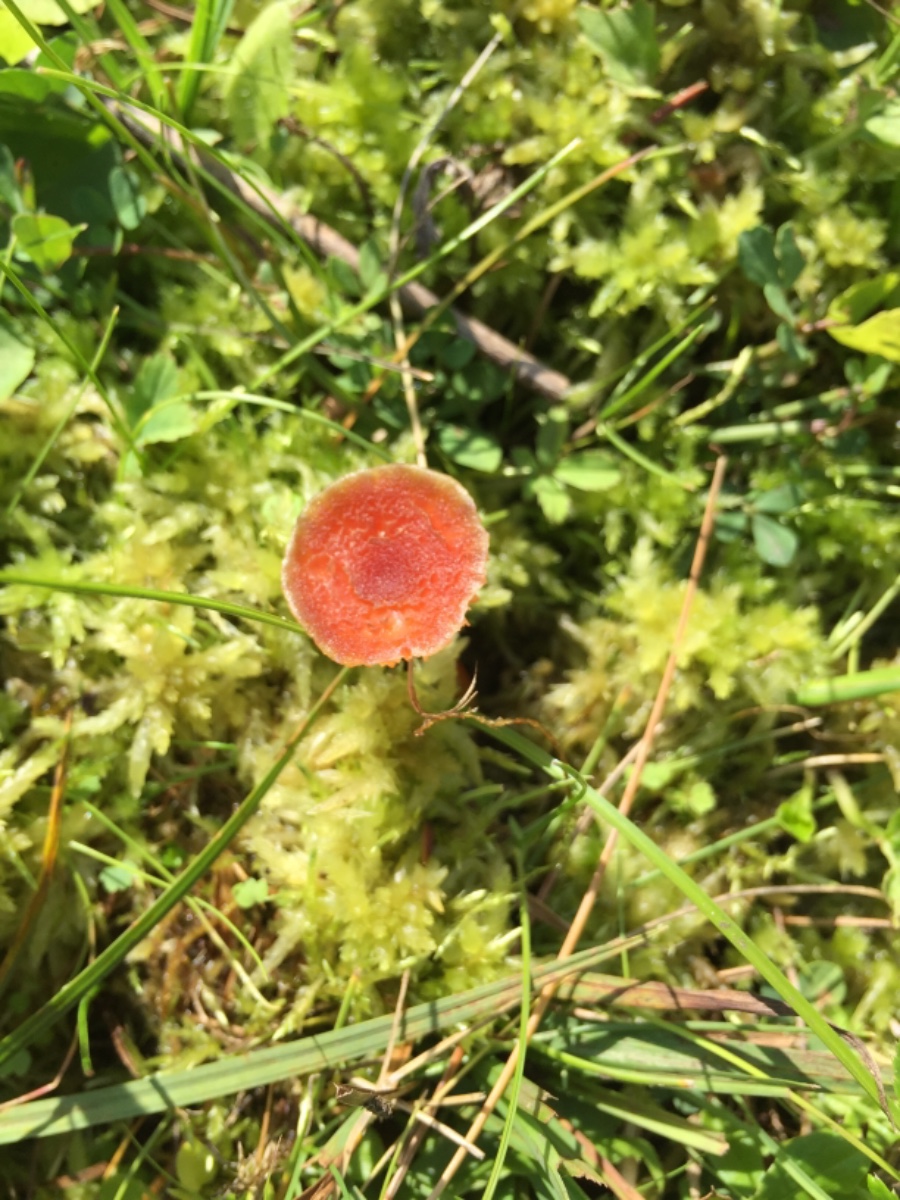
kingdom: Fungi
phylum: Basidiomycota
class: Agaricomycetes
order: Agaricales
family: Hygrophoraceae
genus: Hygrocybe
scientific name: Hygrocybe cantharellus
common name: kantarel-vokshat
